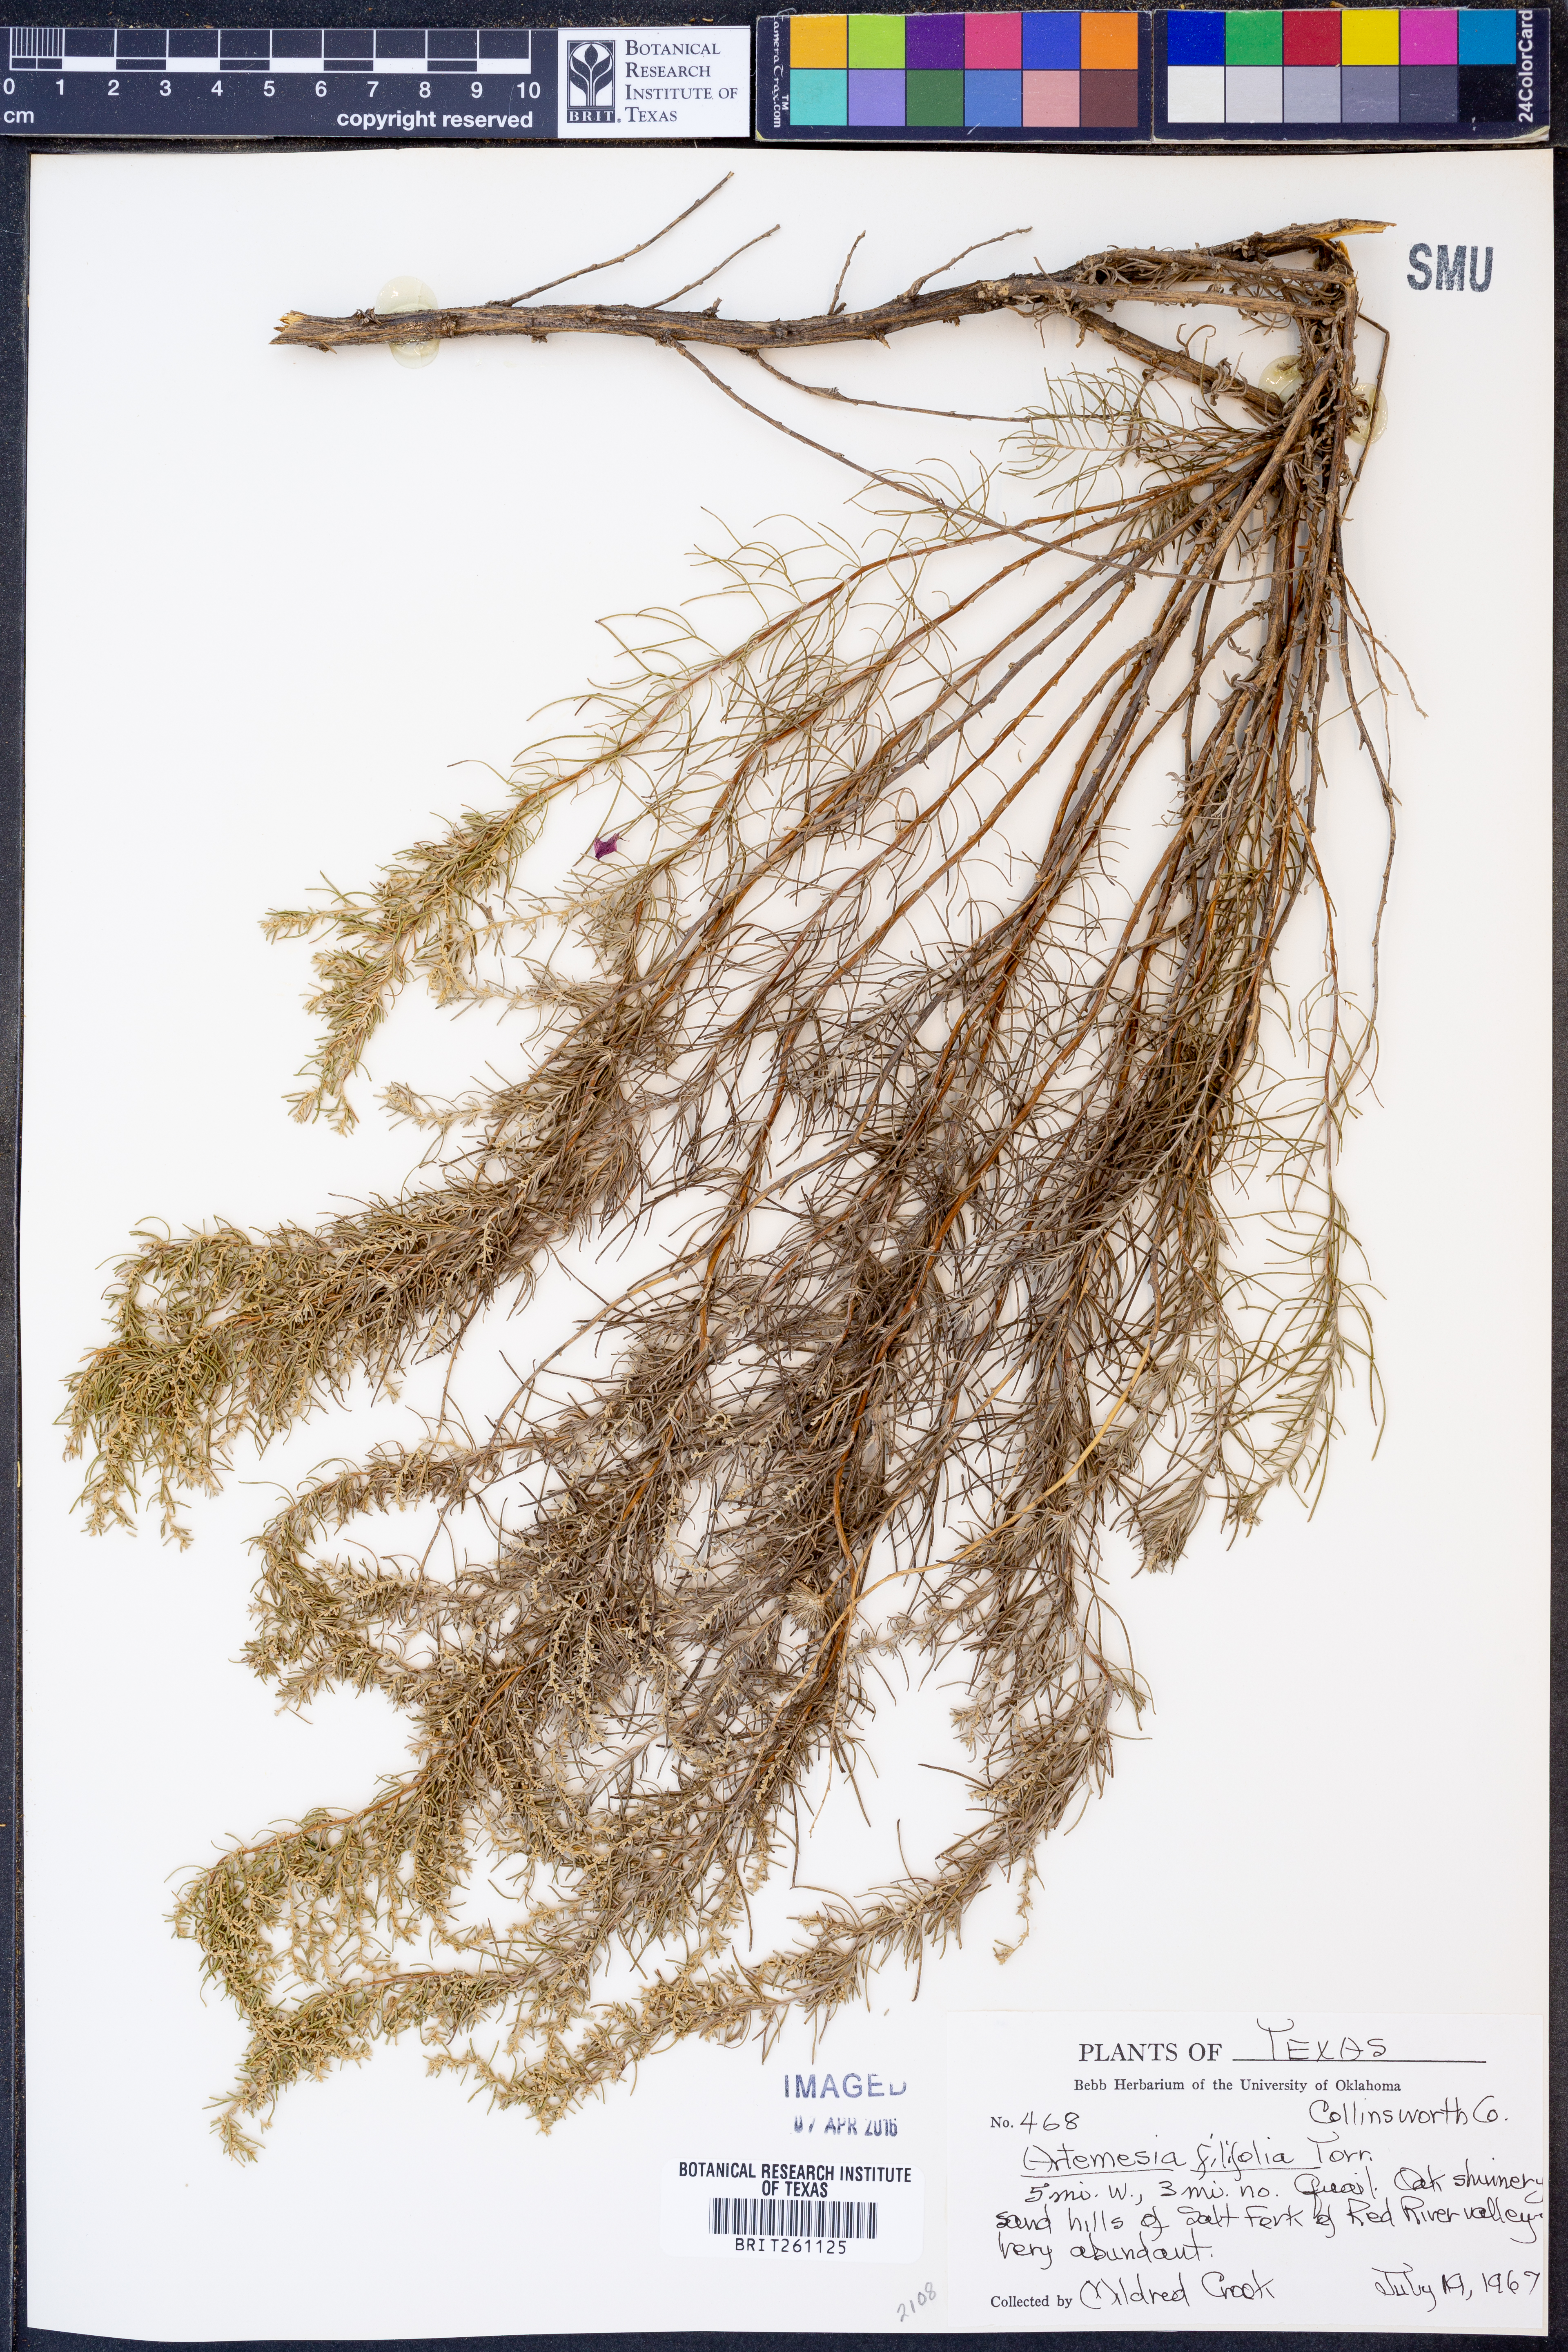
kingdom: Plantae
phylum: Tracheophyta
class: Magnoliopsida
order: Asterales
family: Asteraceae
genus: Artemisia
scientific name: Artemisia filifolia
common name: Sand-sage
